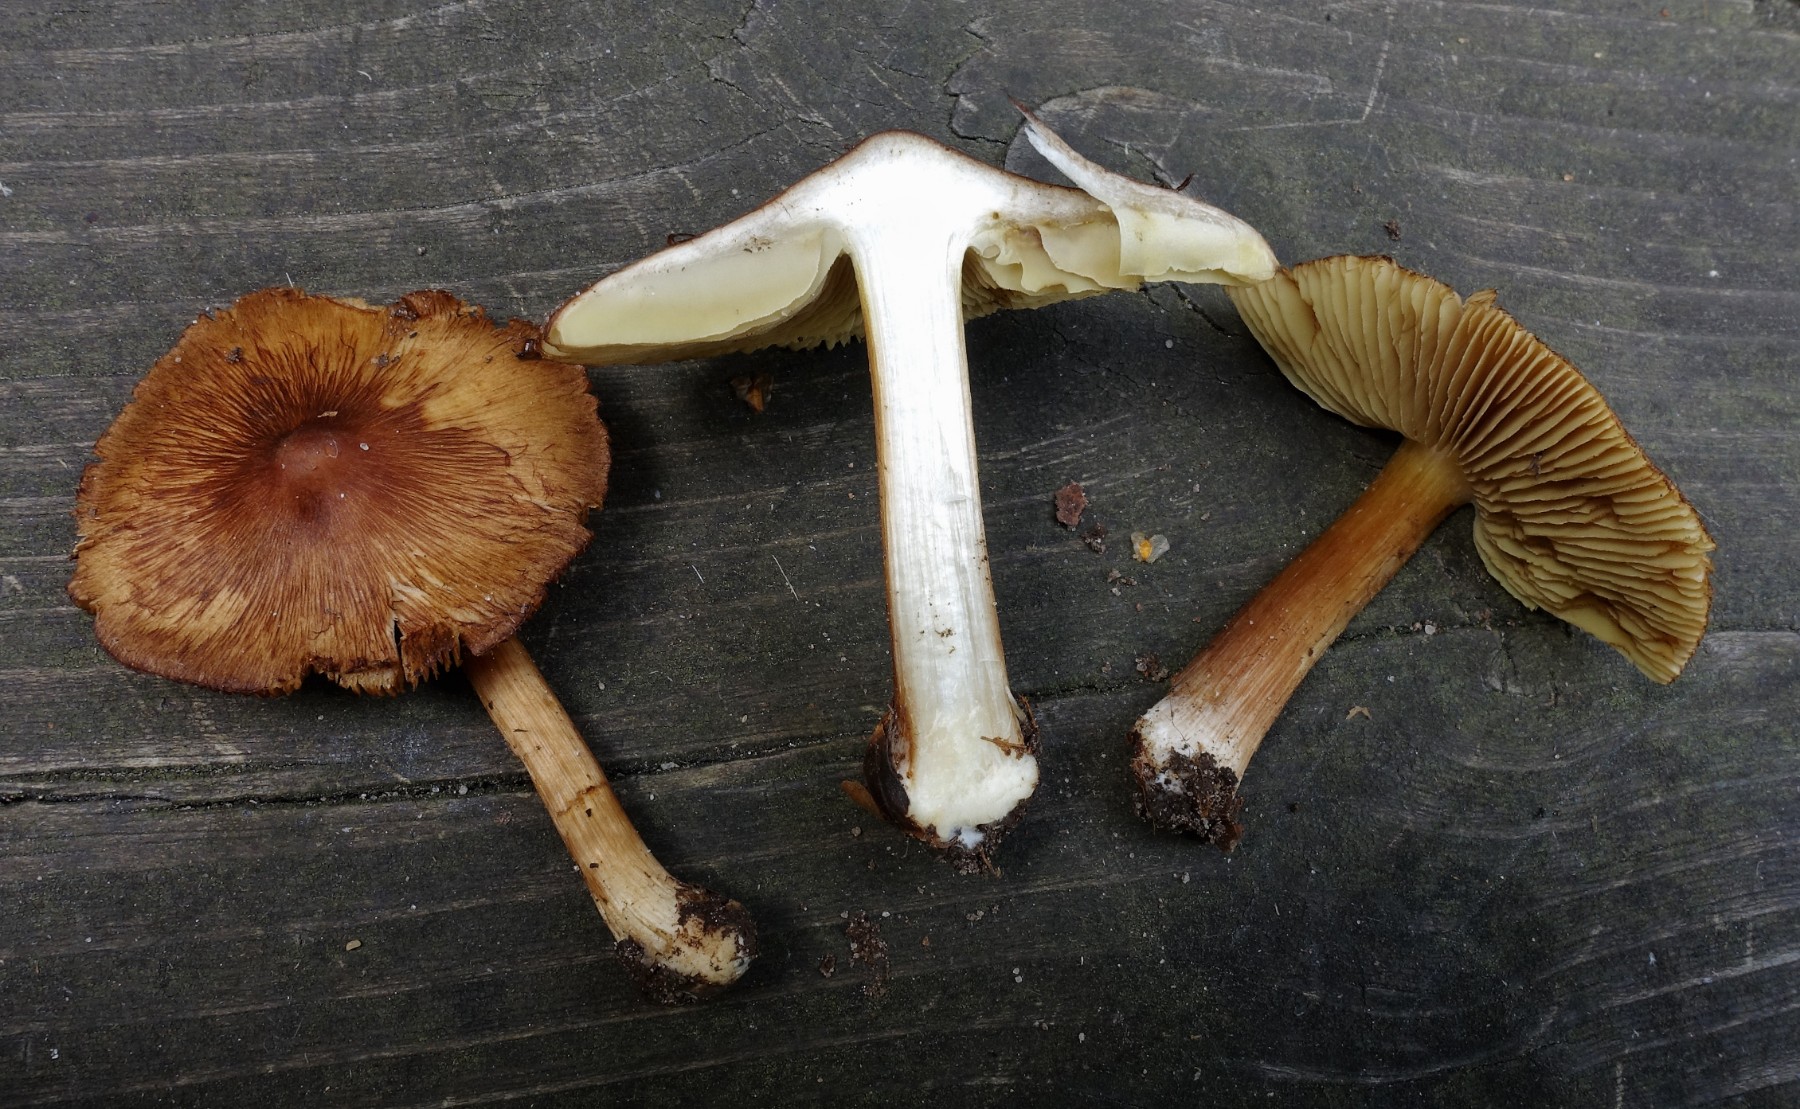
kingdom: Fungi
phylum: Basidiomycota
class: Agaricomycetes
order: Agaricales
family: Inocybaceae
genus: Inosperma
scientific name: Inosperma
